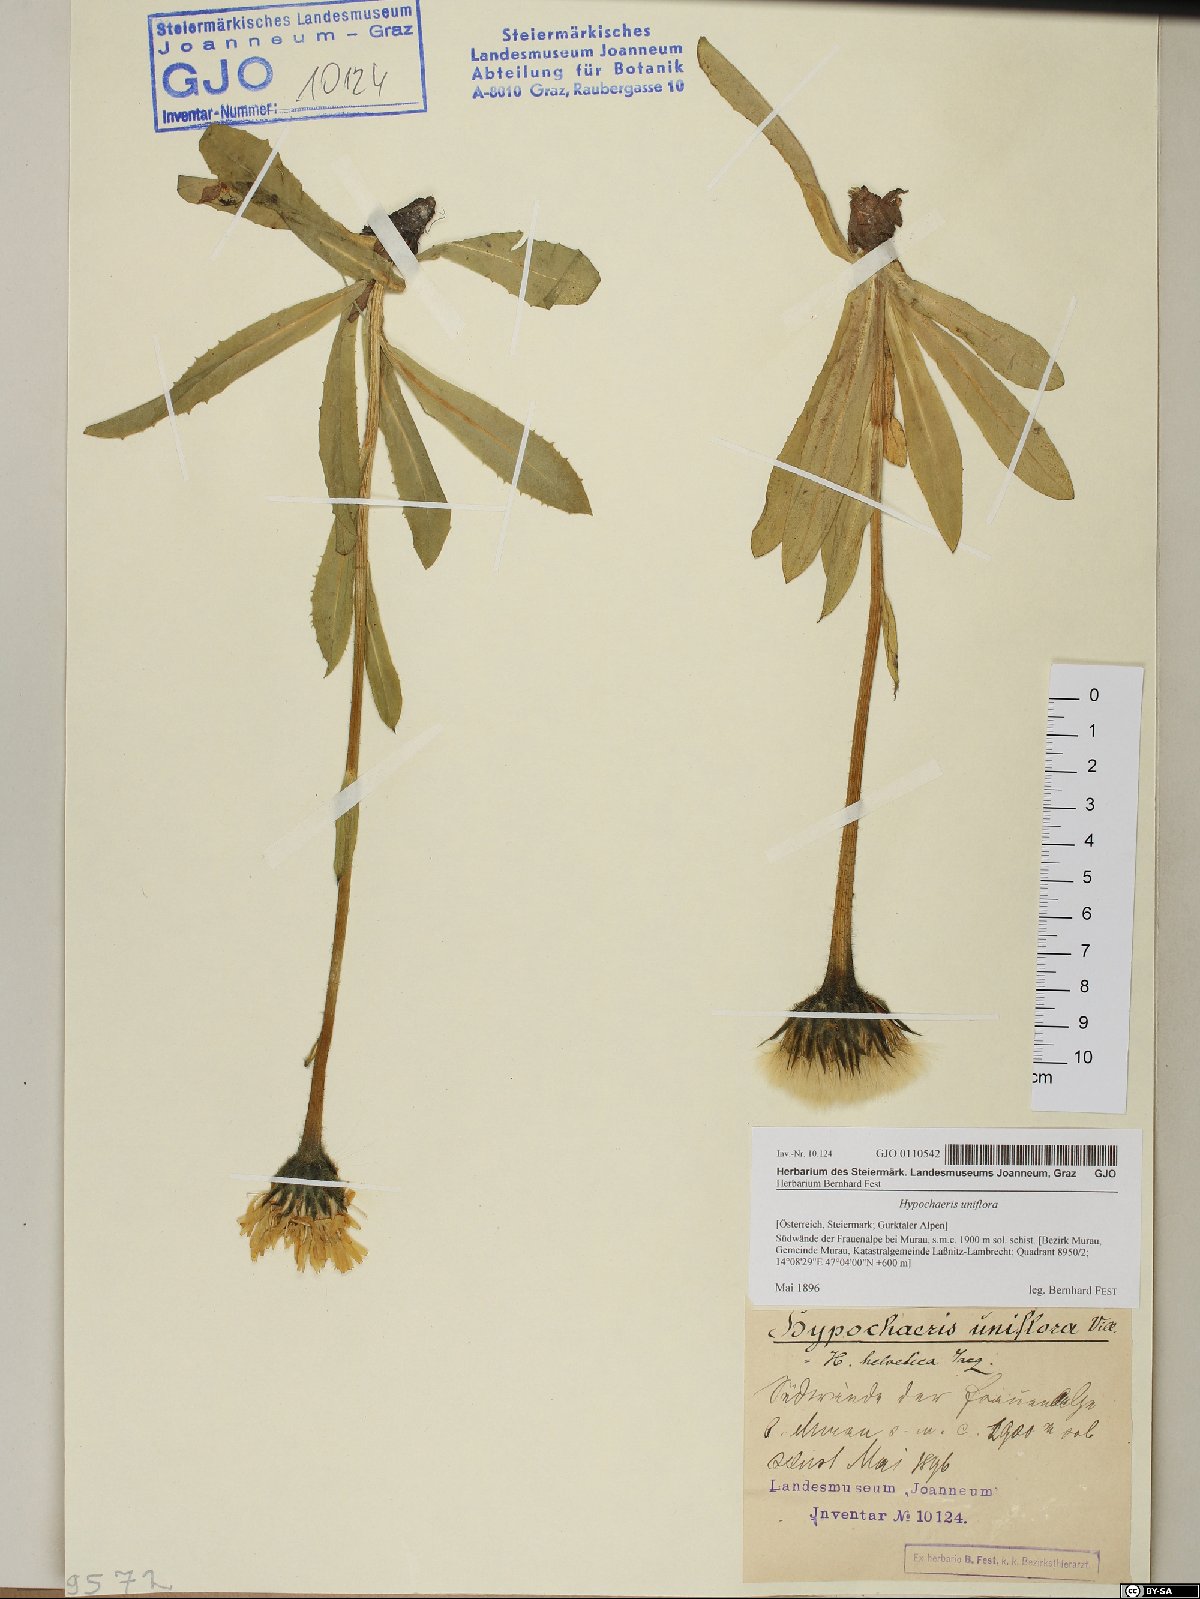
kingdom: Plantae
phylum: Tracheophyta
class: Magnoliopsida
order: Asterales
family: Asteraceae
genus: Trommsdorffia
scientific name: Trommsdorffia uniflora
